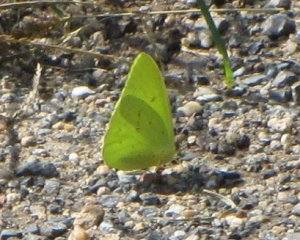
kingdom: Animalia
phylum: Arthropoda
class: Insecta
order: Lepidoptera
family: Pieridae
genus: Phoebis
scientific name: Phoebis sennae
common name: Cloudless Sulphur
